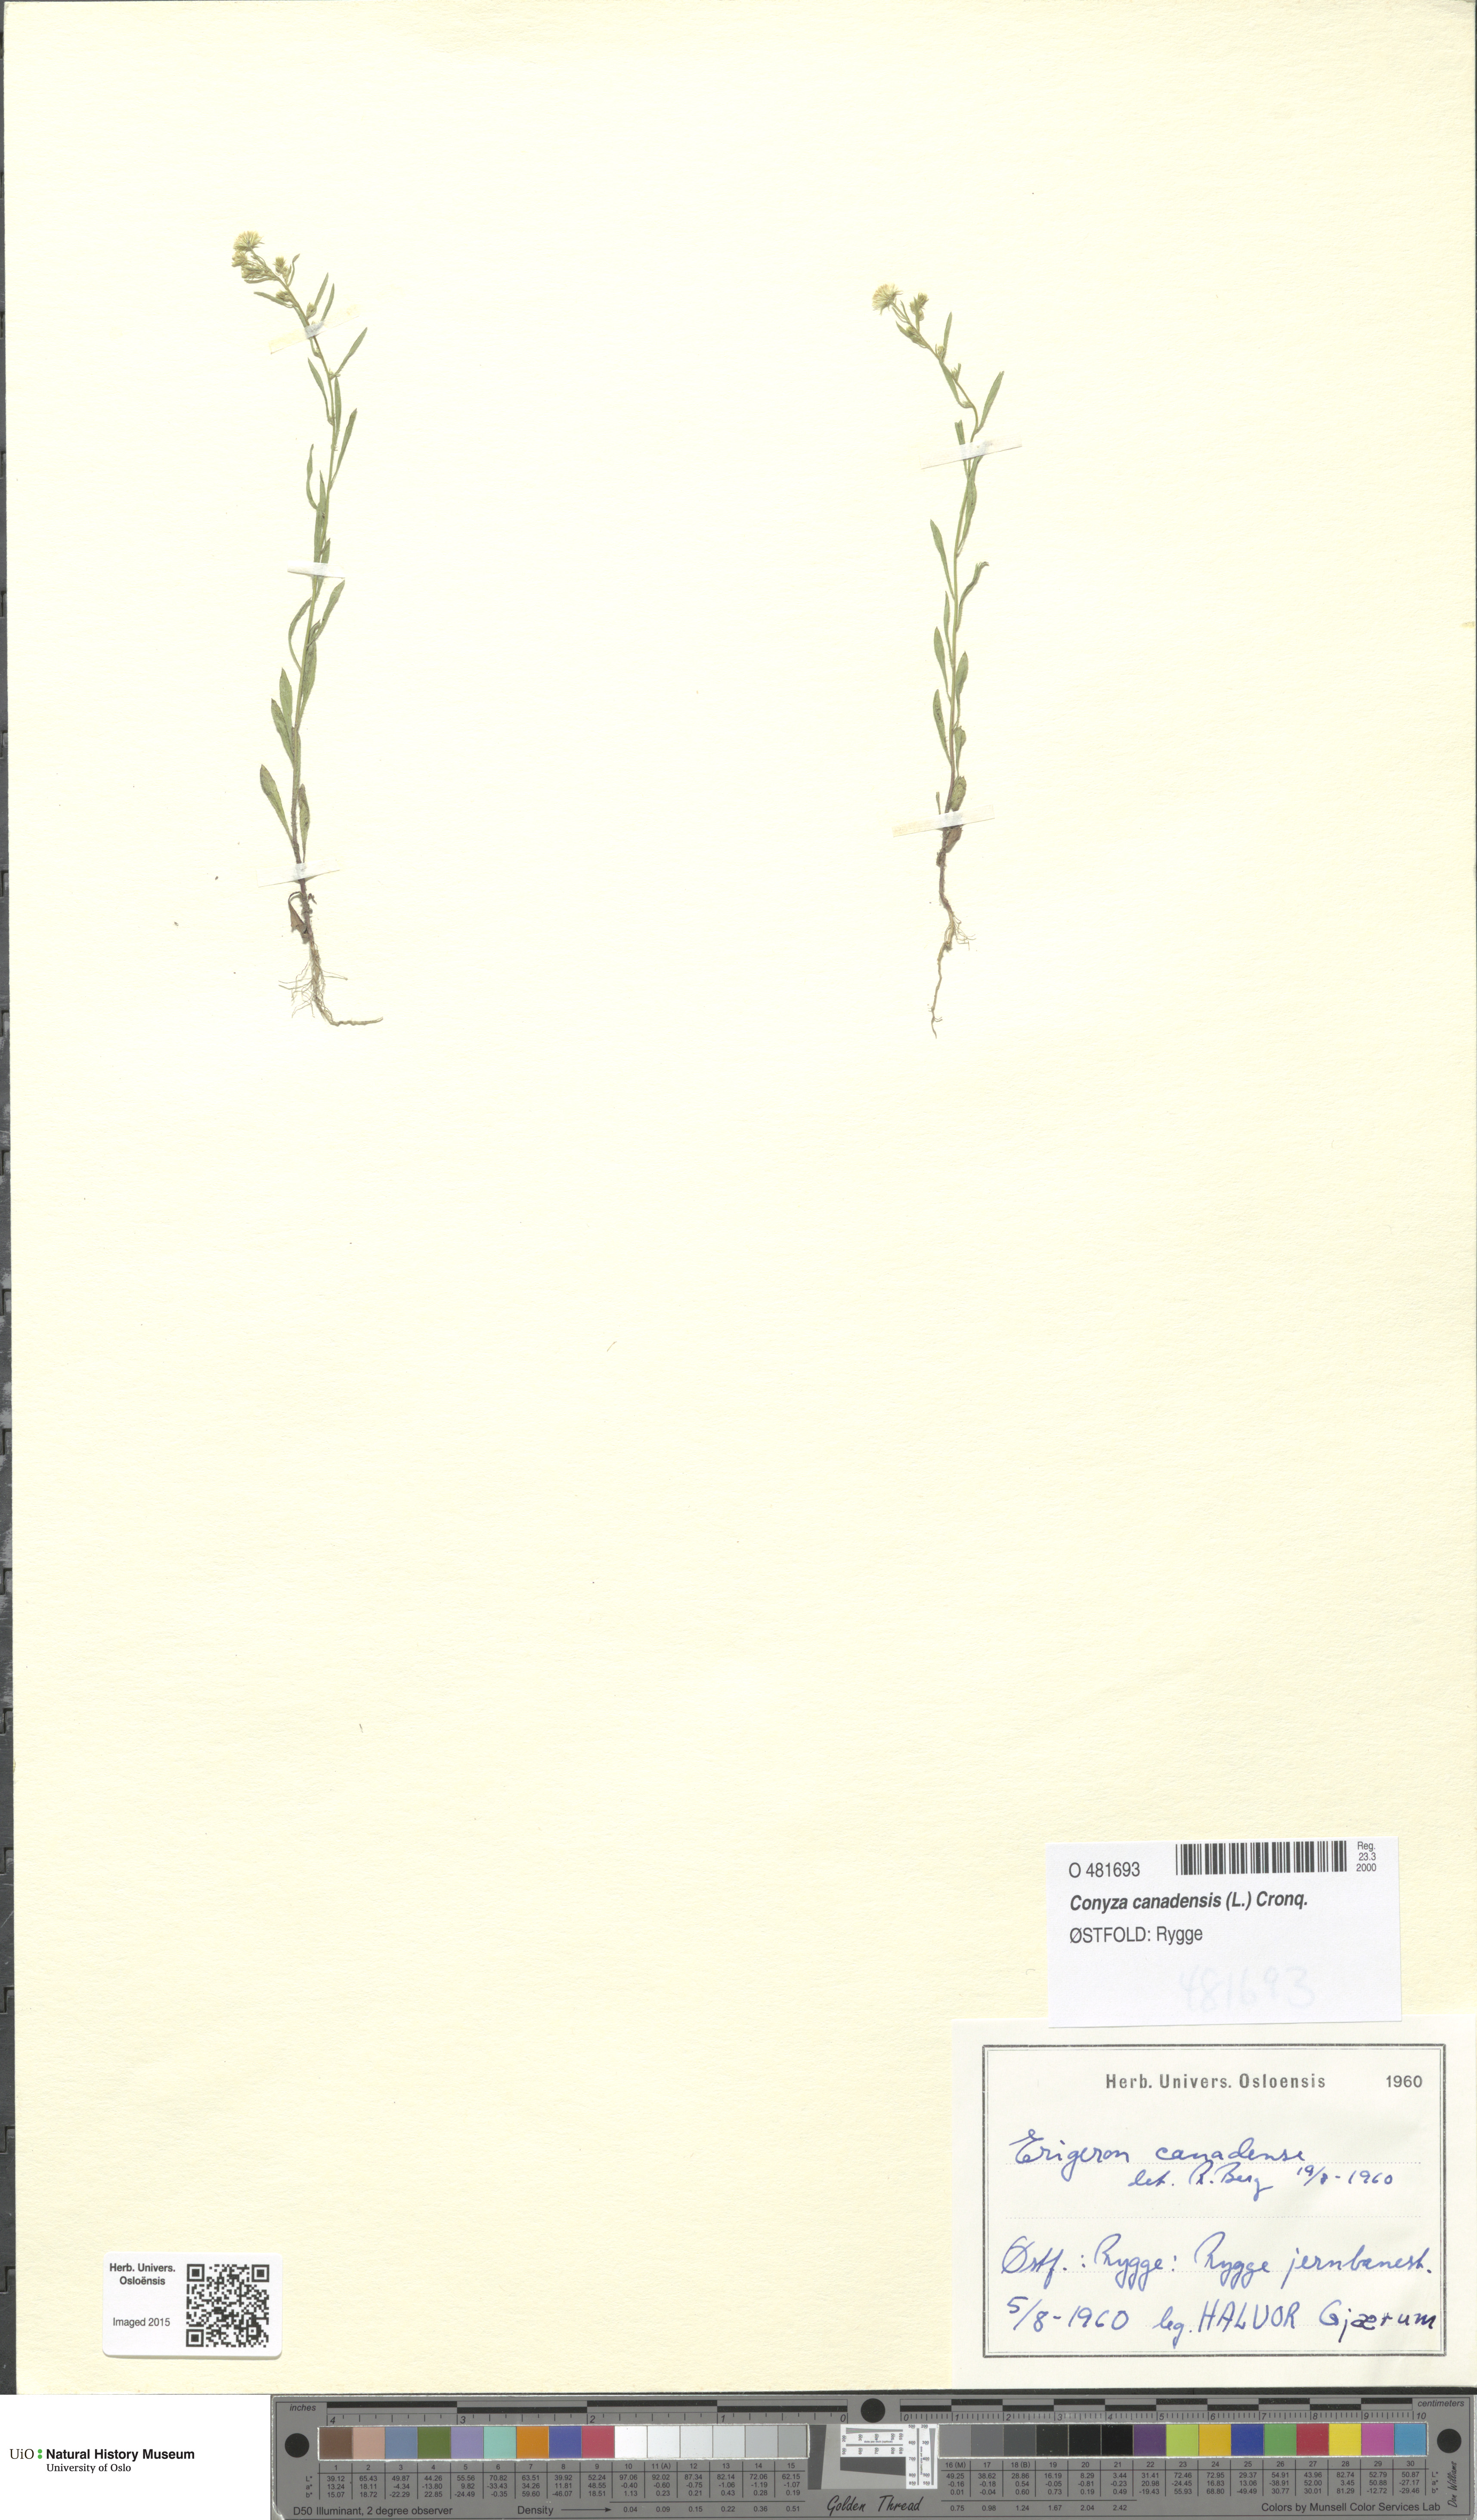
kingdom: Plantae
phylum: Tracheophyta
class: Magnoliopsida
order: Asterales
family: Asteraceae
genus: Erigeron
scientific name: Erigeron canadensis
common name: Canadian fleabane
